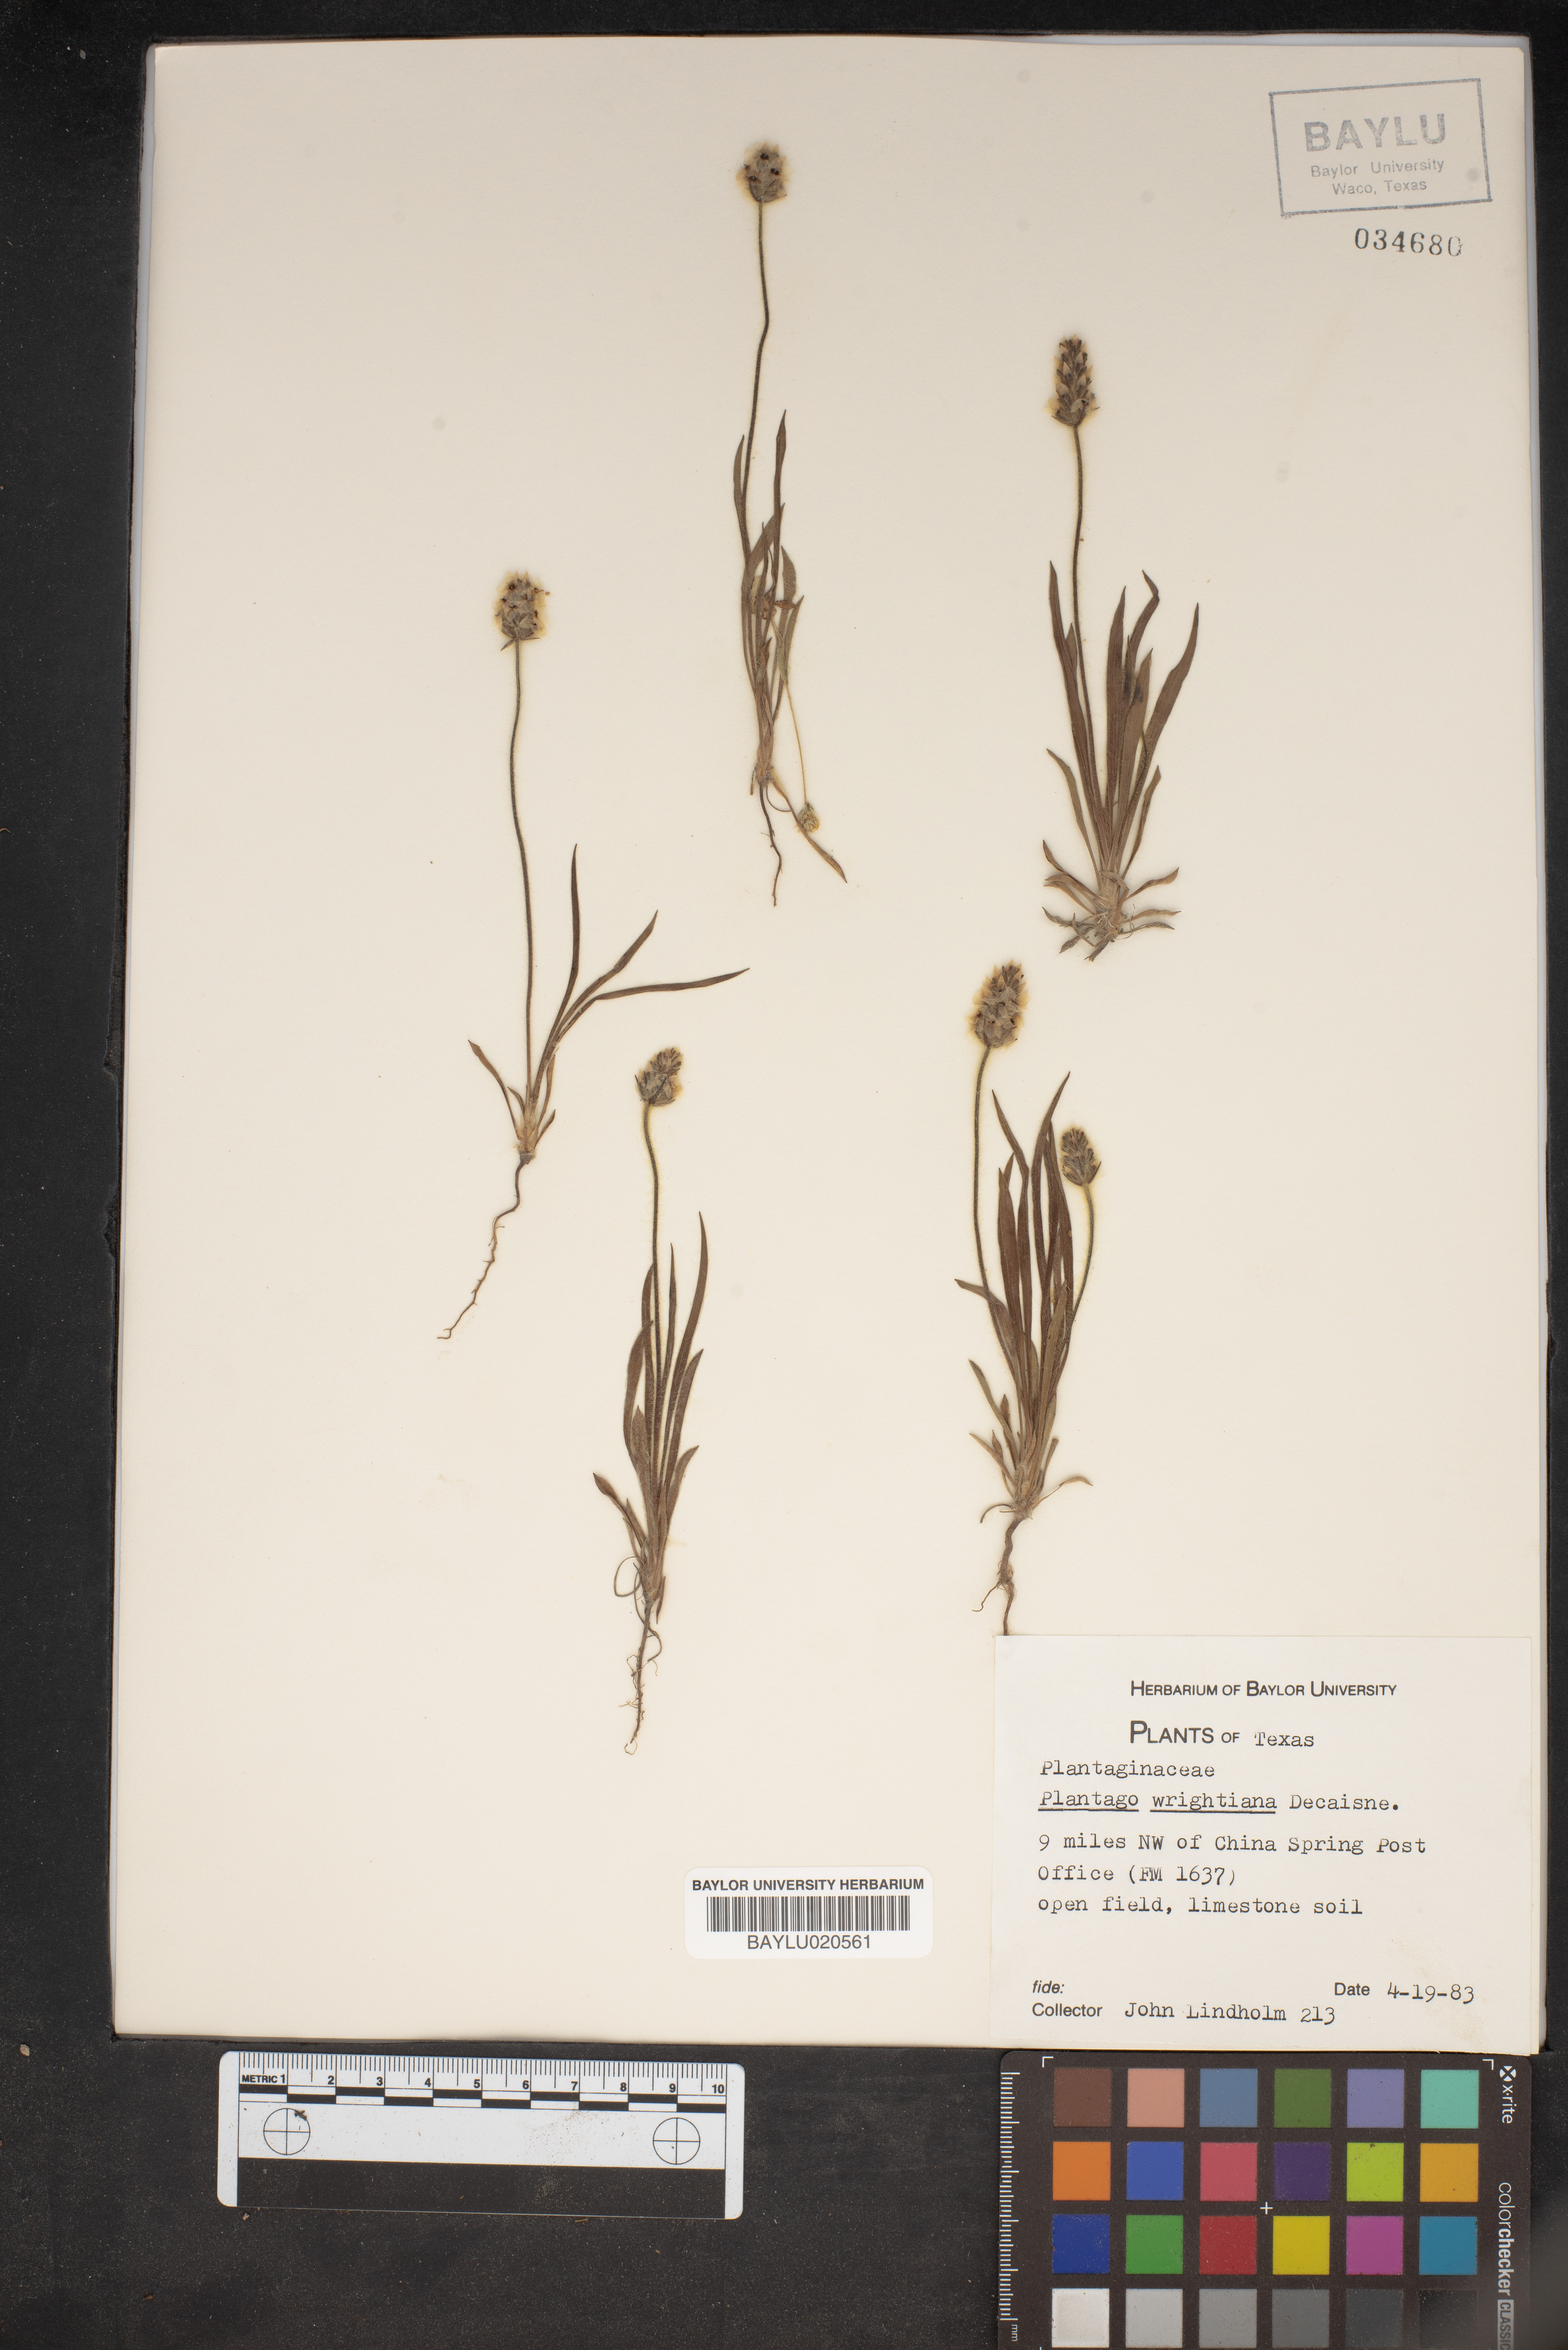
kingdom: Plantae
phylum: Tracheophyta
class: Magnoliopsida
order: Lamiales
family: Plantaginaceae
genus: Plantago
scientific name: Plantago wrightiana
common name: Wright's plantain
